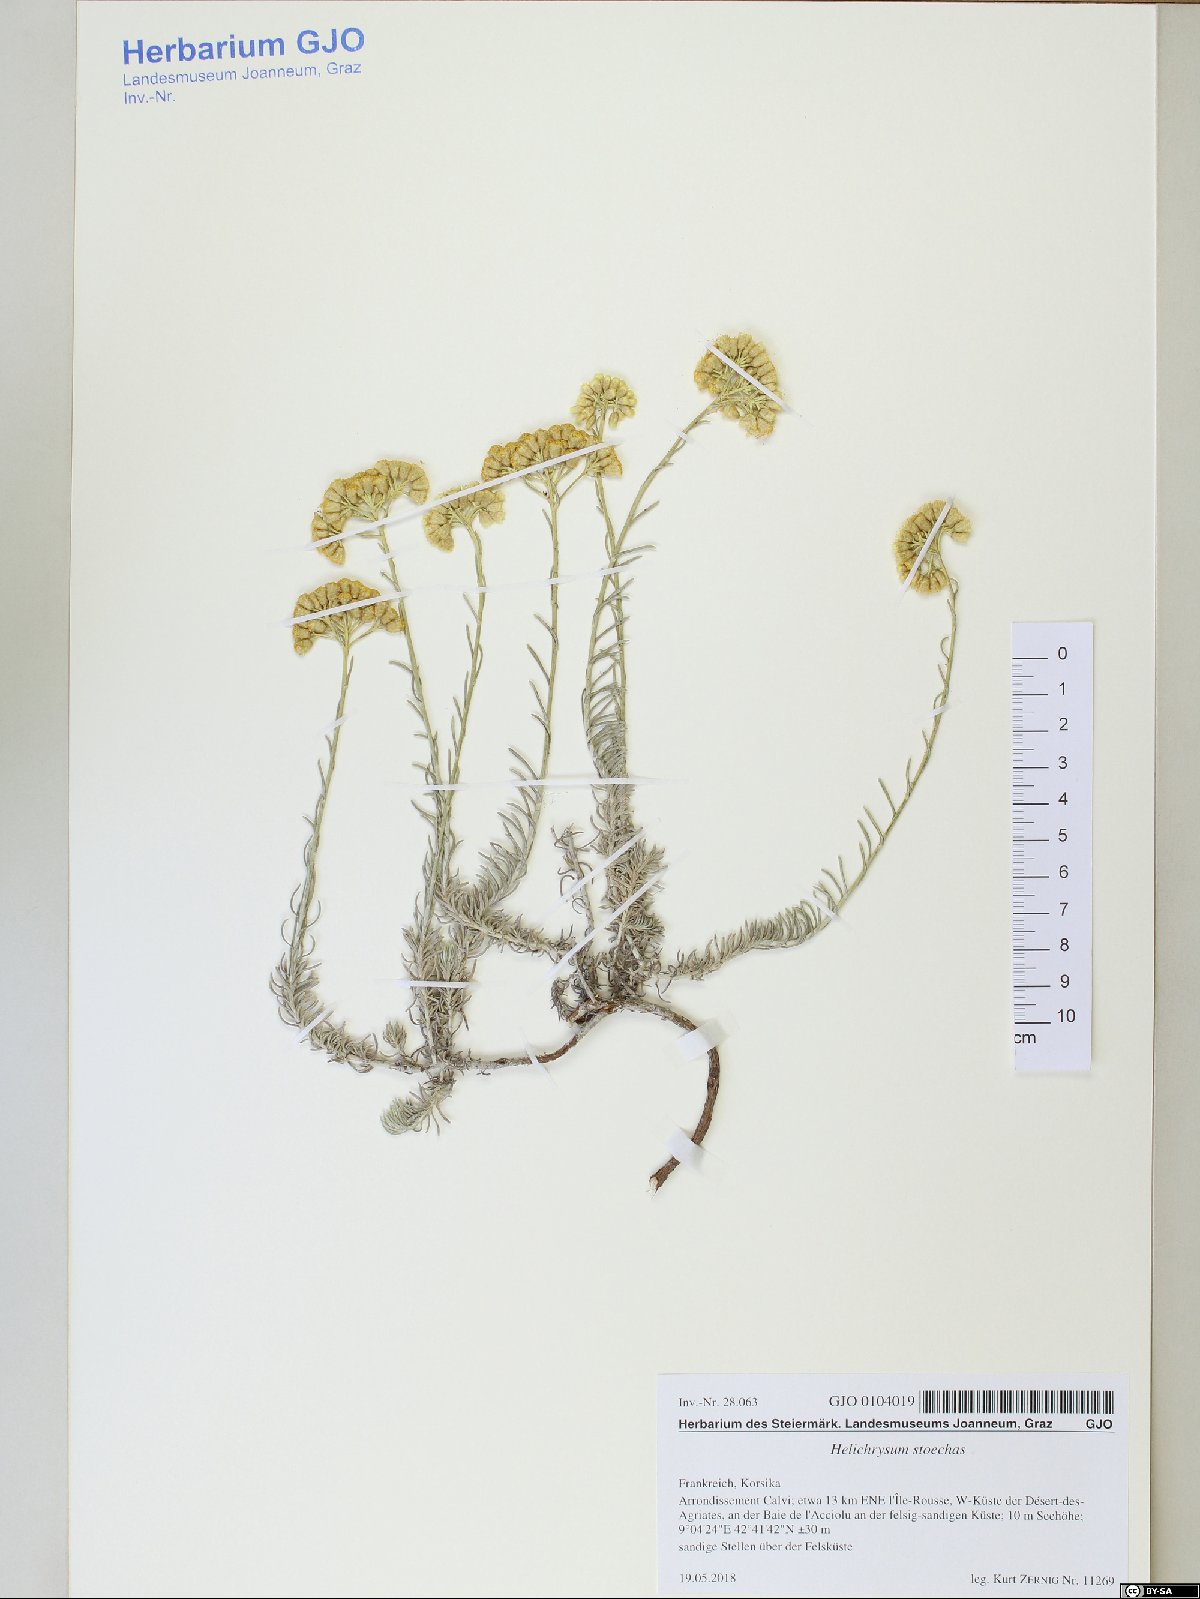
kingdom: Plantae
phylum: Tracheophyta
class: Magnoliopsida
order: Asterales
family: Asteraceae
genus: Helichrysum
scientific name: Helichrysum stoechas
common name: Goldilocks
